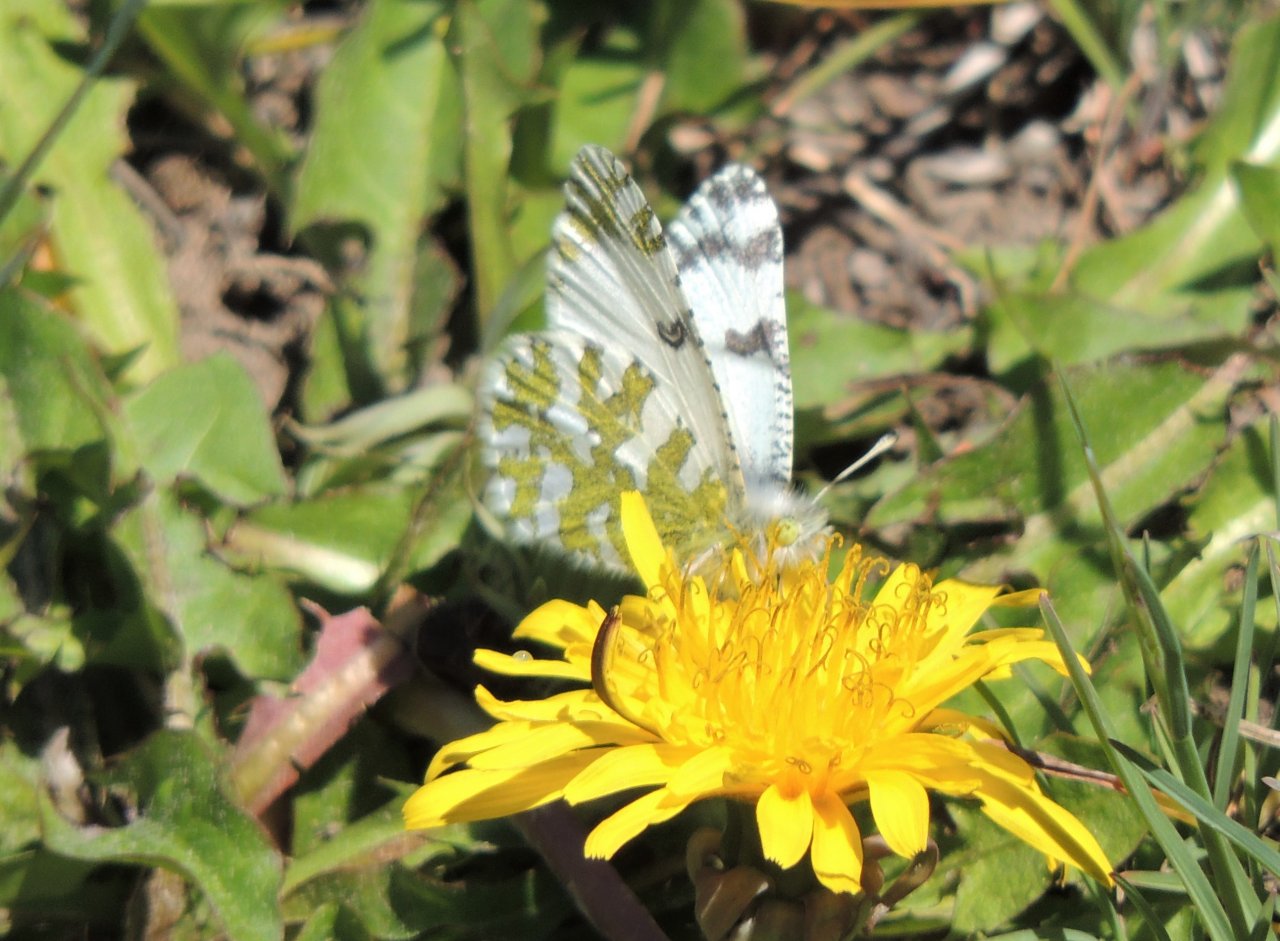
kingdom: Animalia
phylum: Arthropoda
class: Insecta
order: Lepidoptera
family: Pieridae
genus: Euchloe
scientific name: Euchloe lotta
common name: Desert Marble
